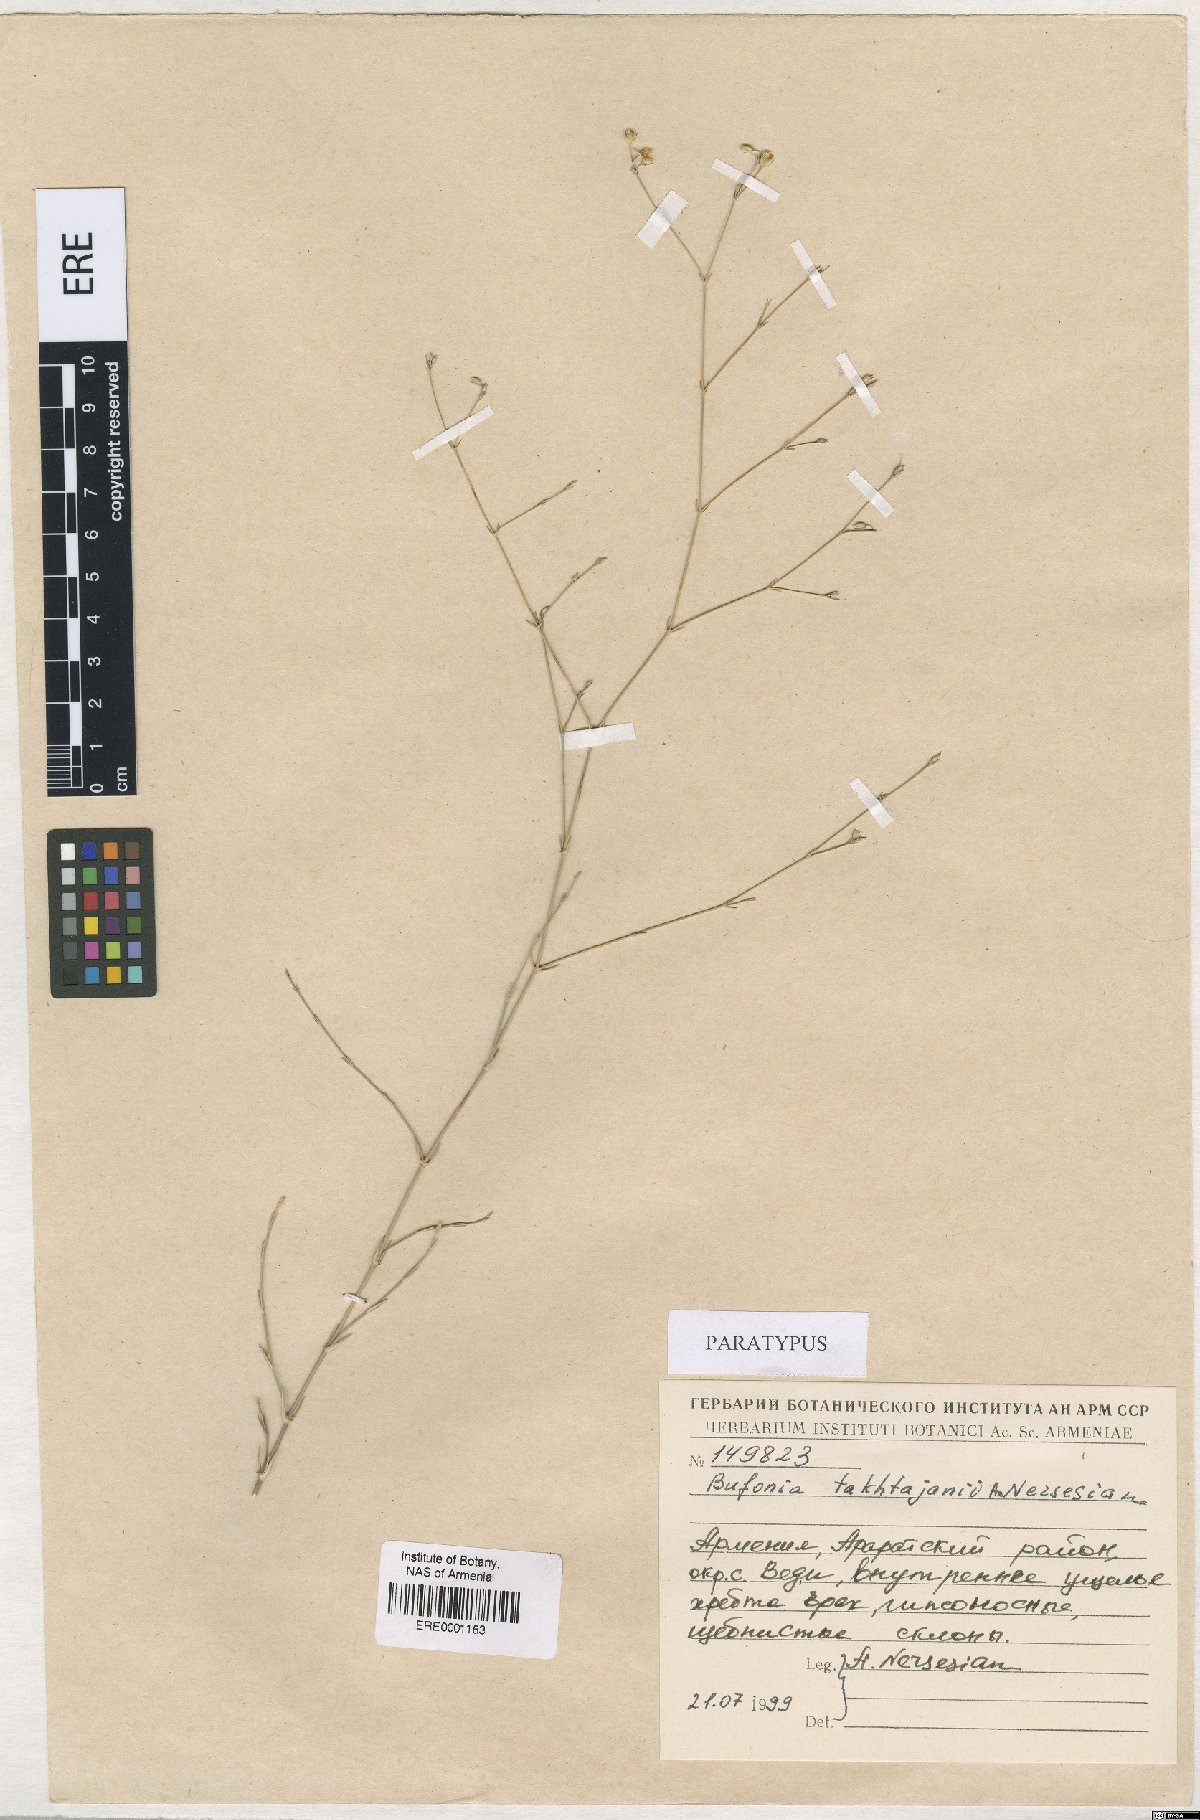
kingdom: Plantae
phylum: Tracheophyta
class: Magnoliopsida
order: Caryophyllales
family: Caryophyllaceae
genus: Bufonia
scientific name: Bufonia takhtajanii
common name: Takhtadjyan's bufonia
